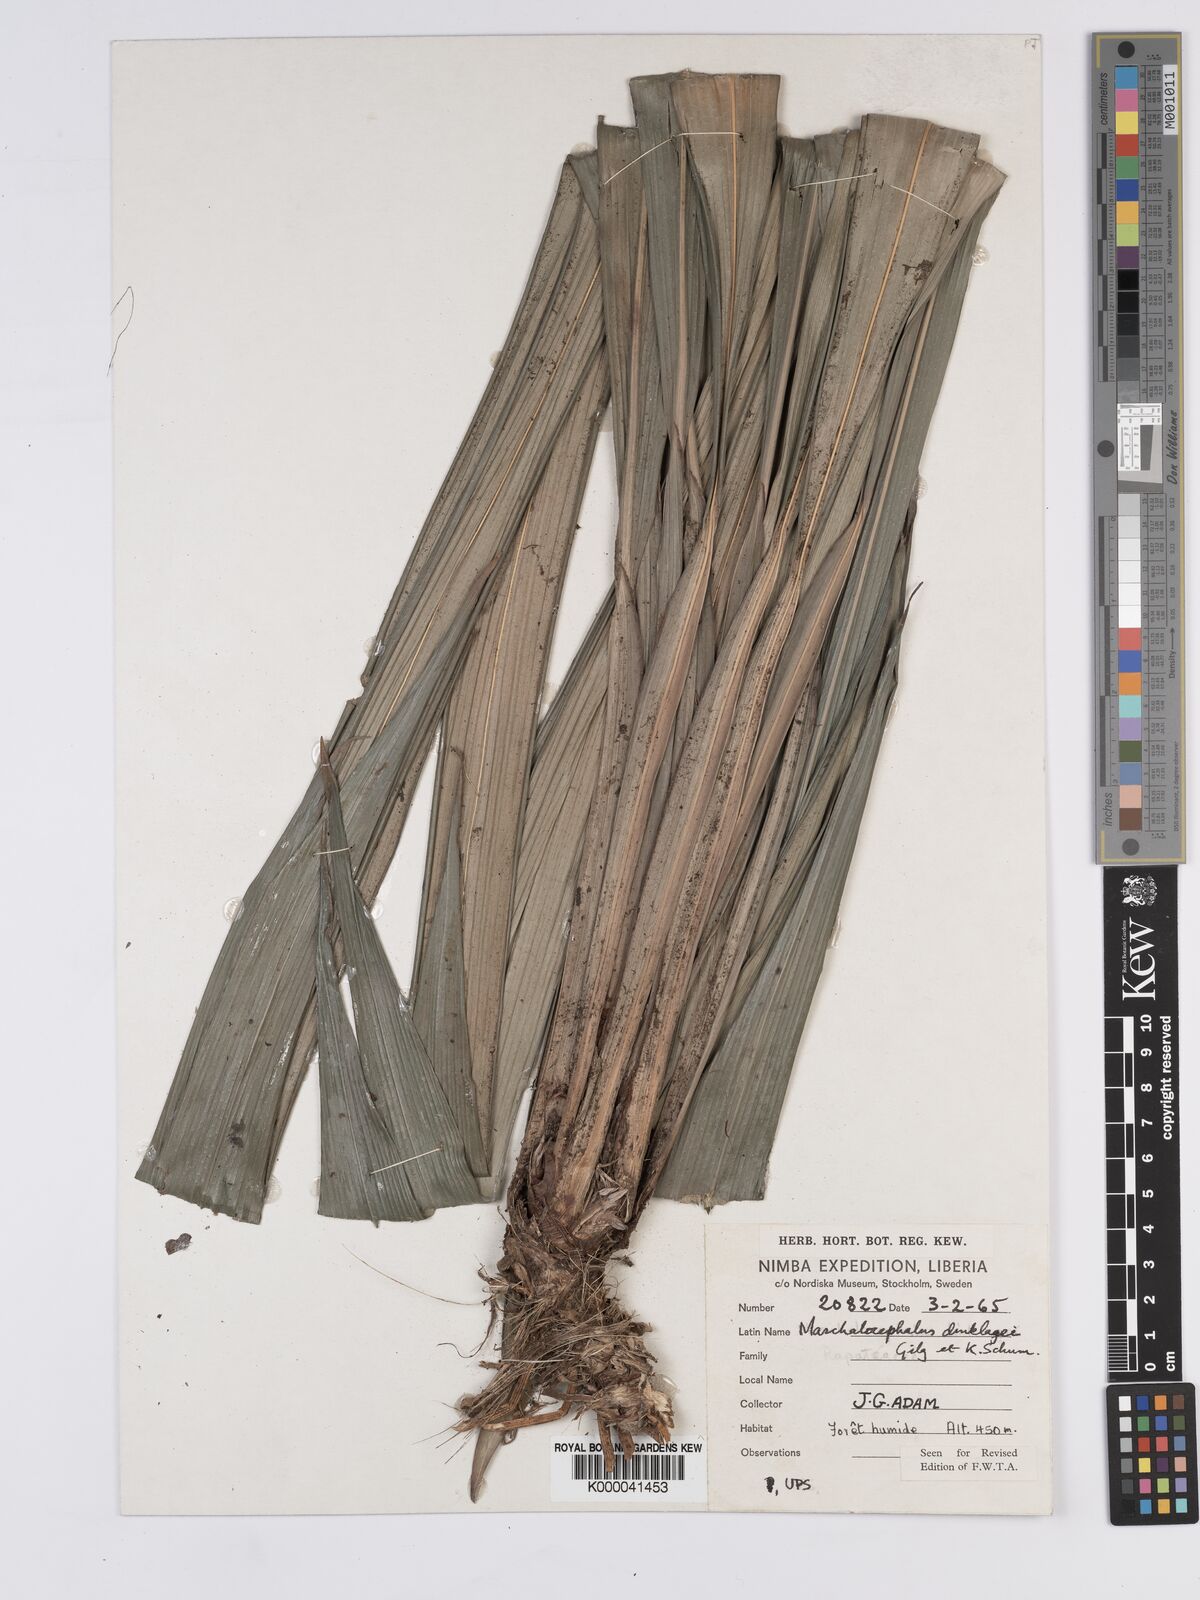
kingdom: Plantae
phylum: Tracheophyta
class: Liliopsida
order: Poales
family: Rapateaceae
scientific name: Rapateaceae
